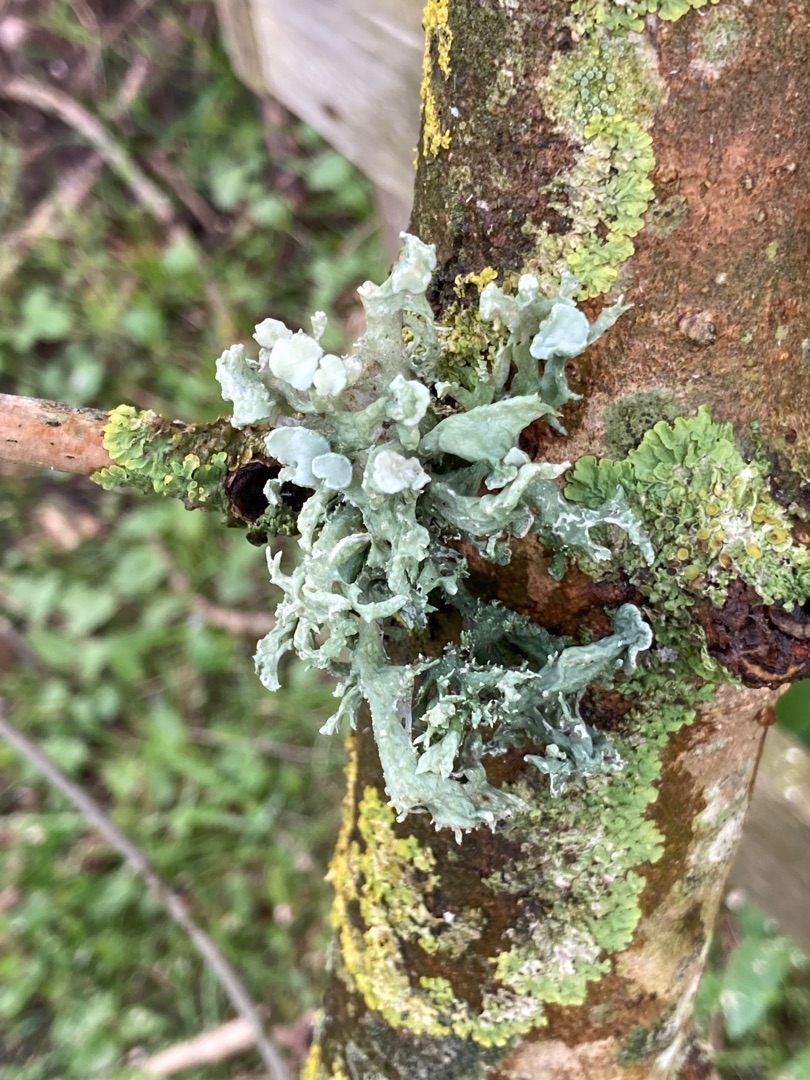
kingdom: Fungi
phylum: Ascomycota
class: Lecanoromycetes
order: Lecanorales
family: Ramalinaceae
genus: Ramalina
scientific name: Ramalina fastigiata
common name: Tue-grenlav
